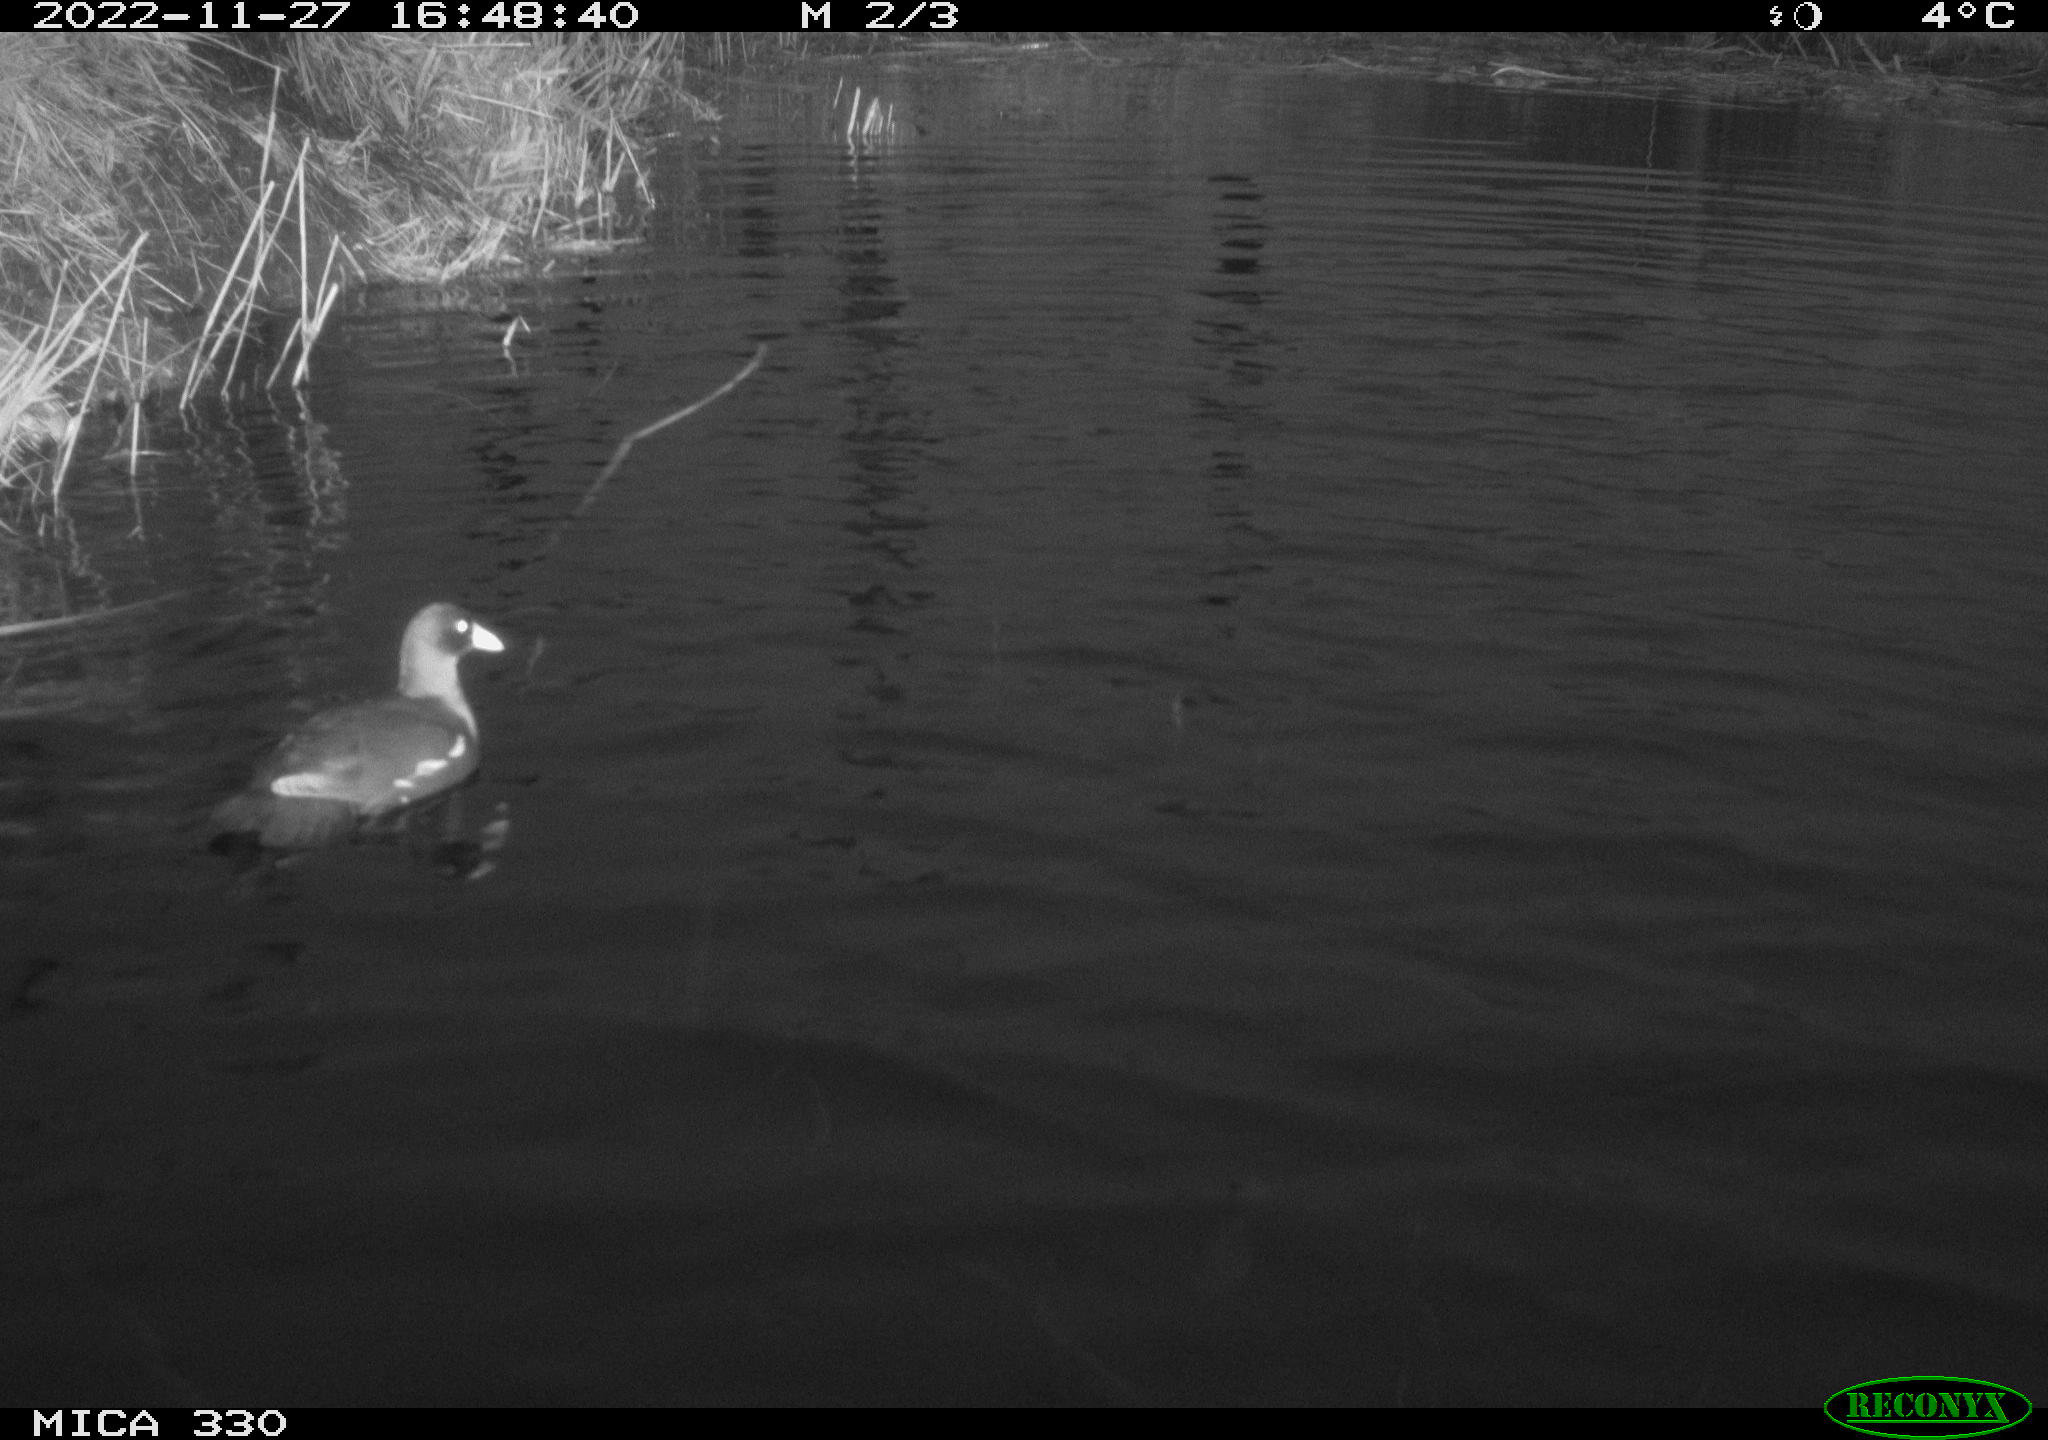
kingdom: Animalia
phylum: Chordata
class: Aves
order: Gruiformes
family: Rallidae
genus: Gallinula
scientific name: Gallinula chloropus
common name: Common moorhen
